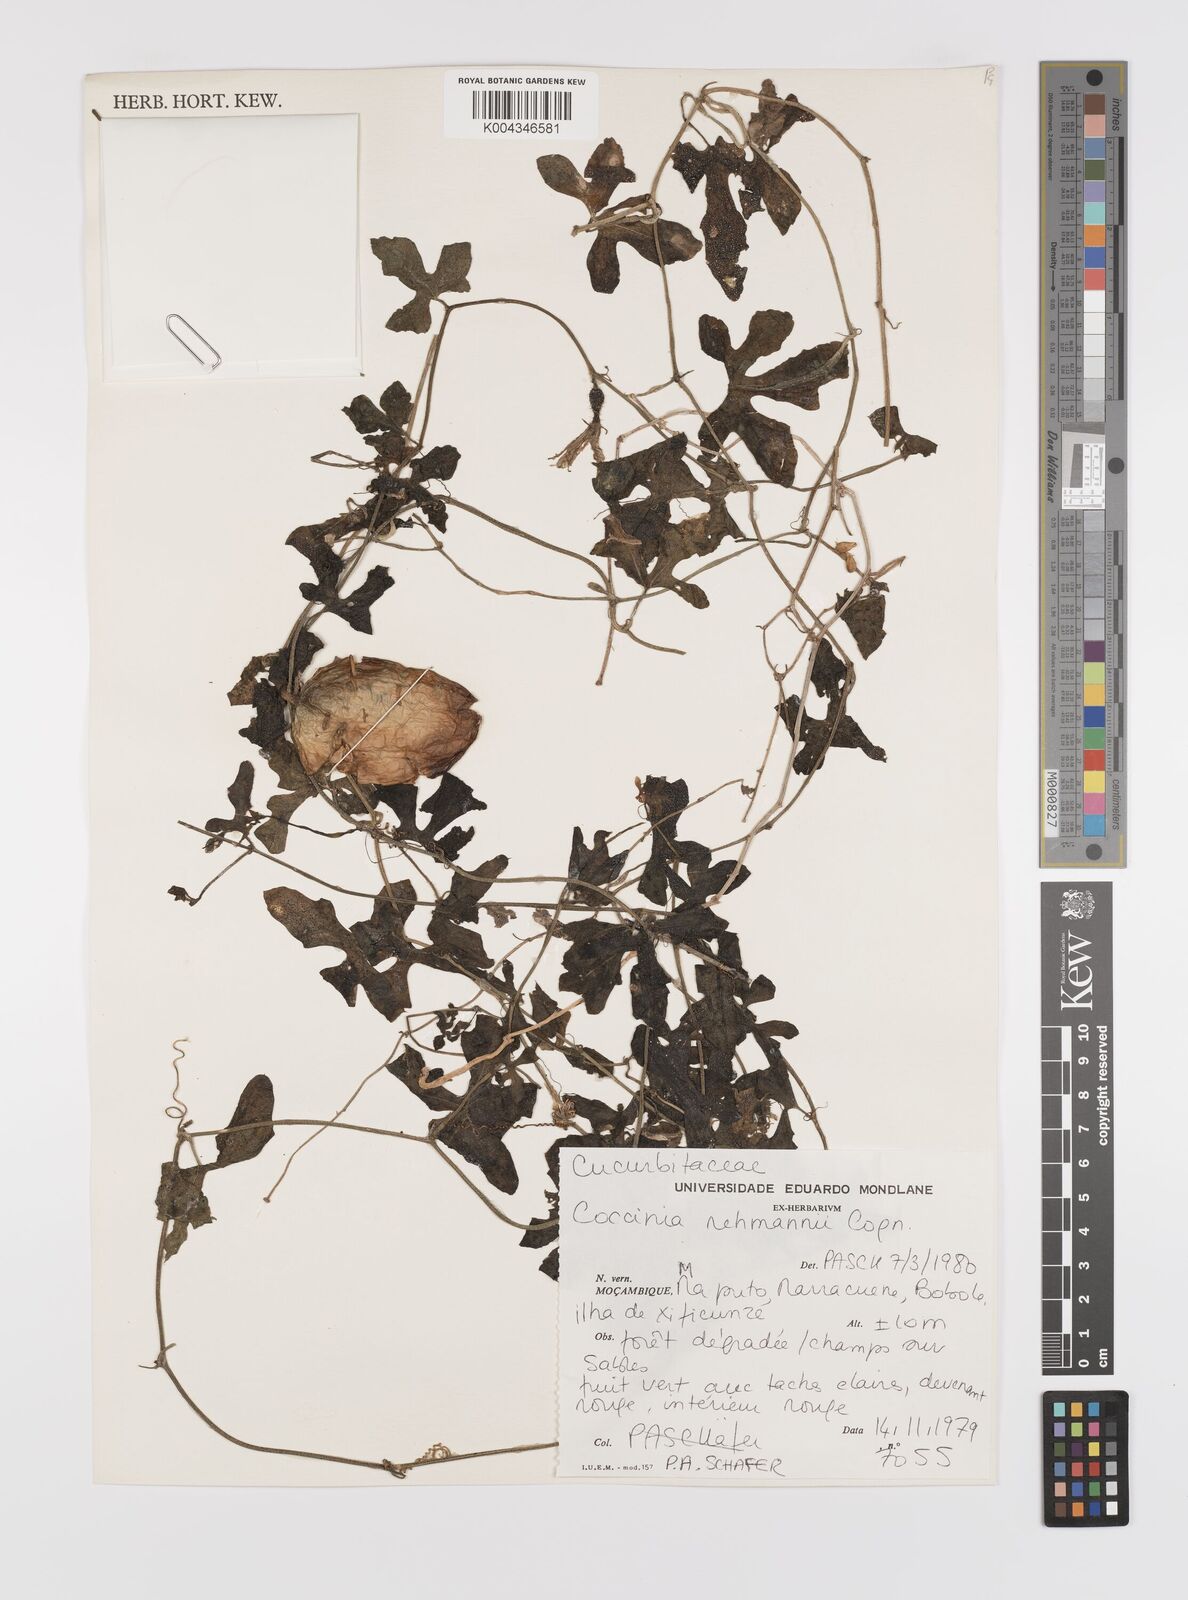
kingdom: Plantae
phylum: Tracheophyta
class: Magnoliopsida
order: Cucurbitales
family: Cucurbitaceae
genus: Coccinia
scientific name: Coccinia rehmannii
